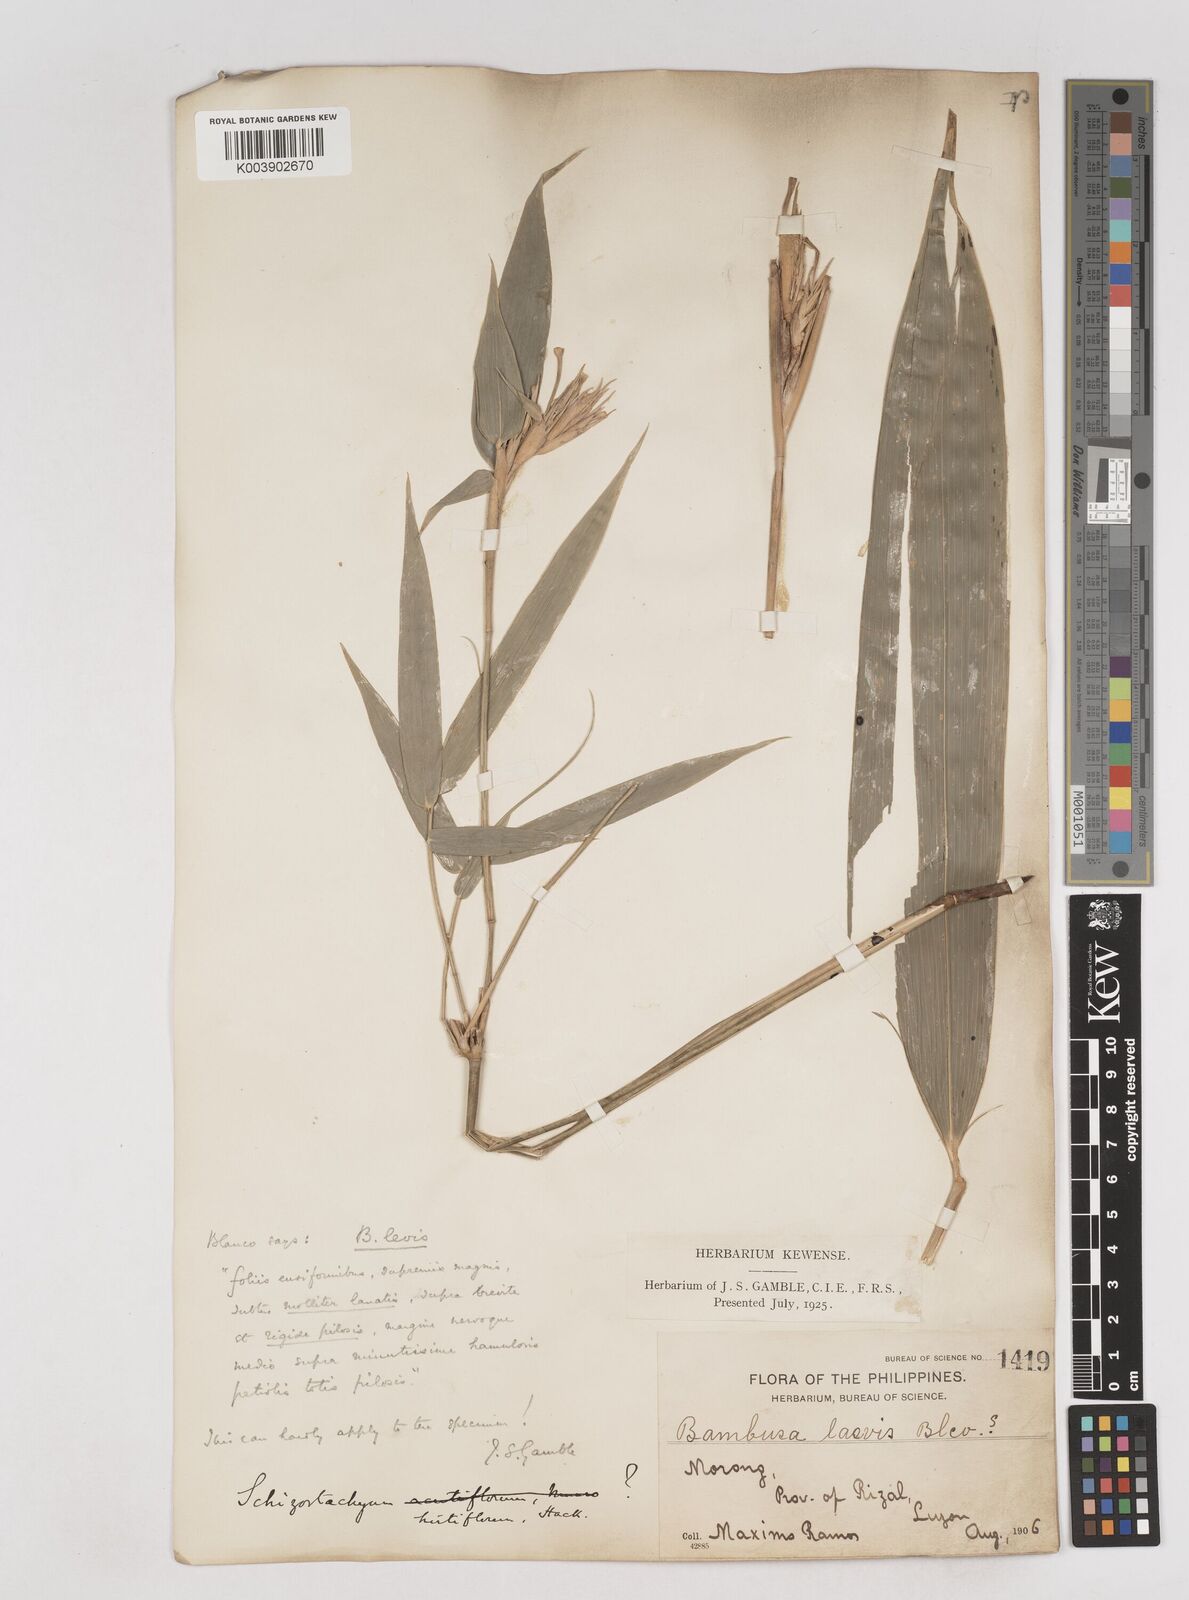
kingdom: Plantae
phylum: Tracheophyta
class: Liliopsida
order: Poales
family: Poaceae
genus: Schizostachyum
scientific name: Schizostachyum lumampao
